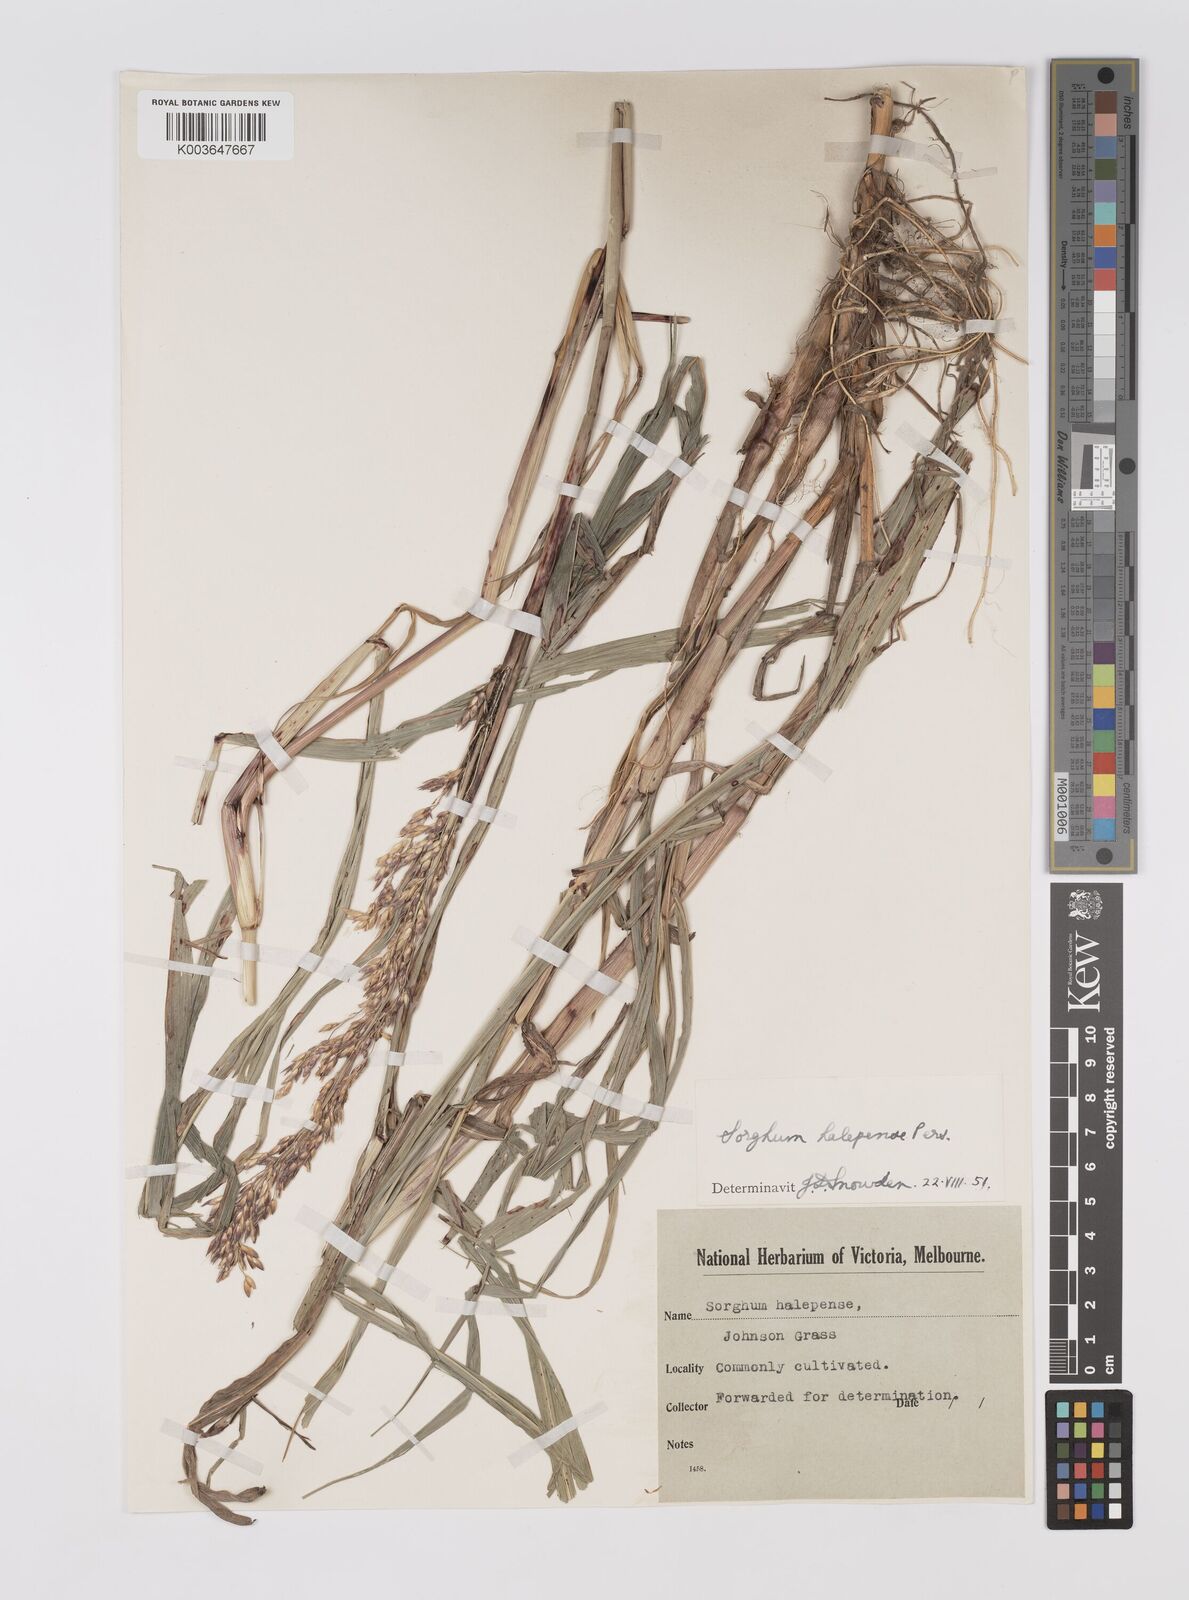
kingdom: Plantae
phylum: Tracheophyta
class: Liliopsida
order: Poales
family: Poaceae
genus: Sorghum
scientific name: Sorghum halepense
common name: Johnson-grass
